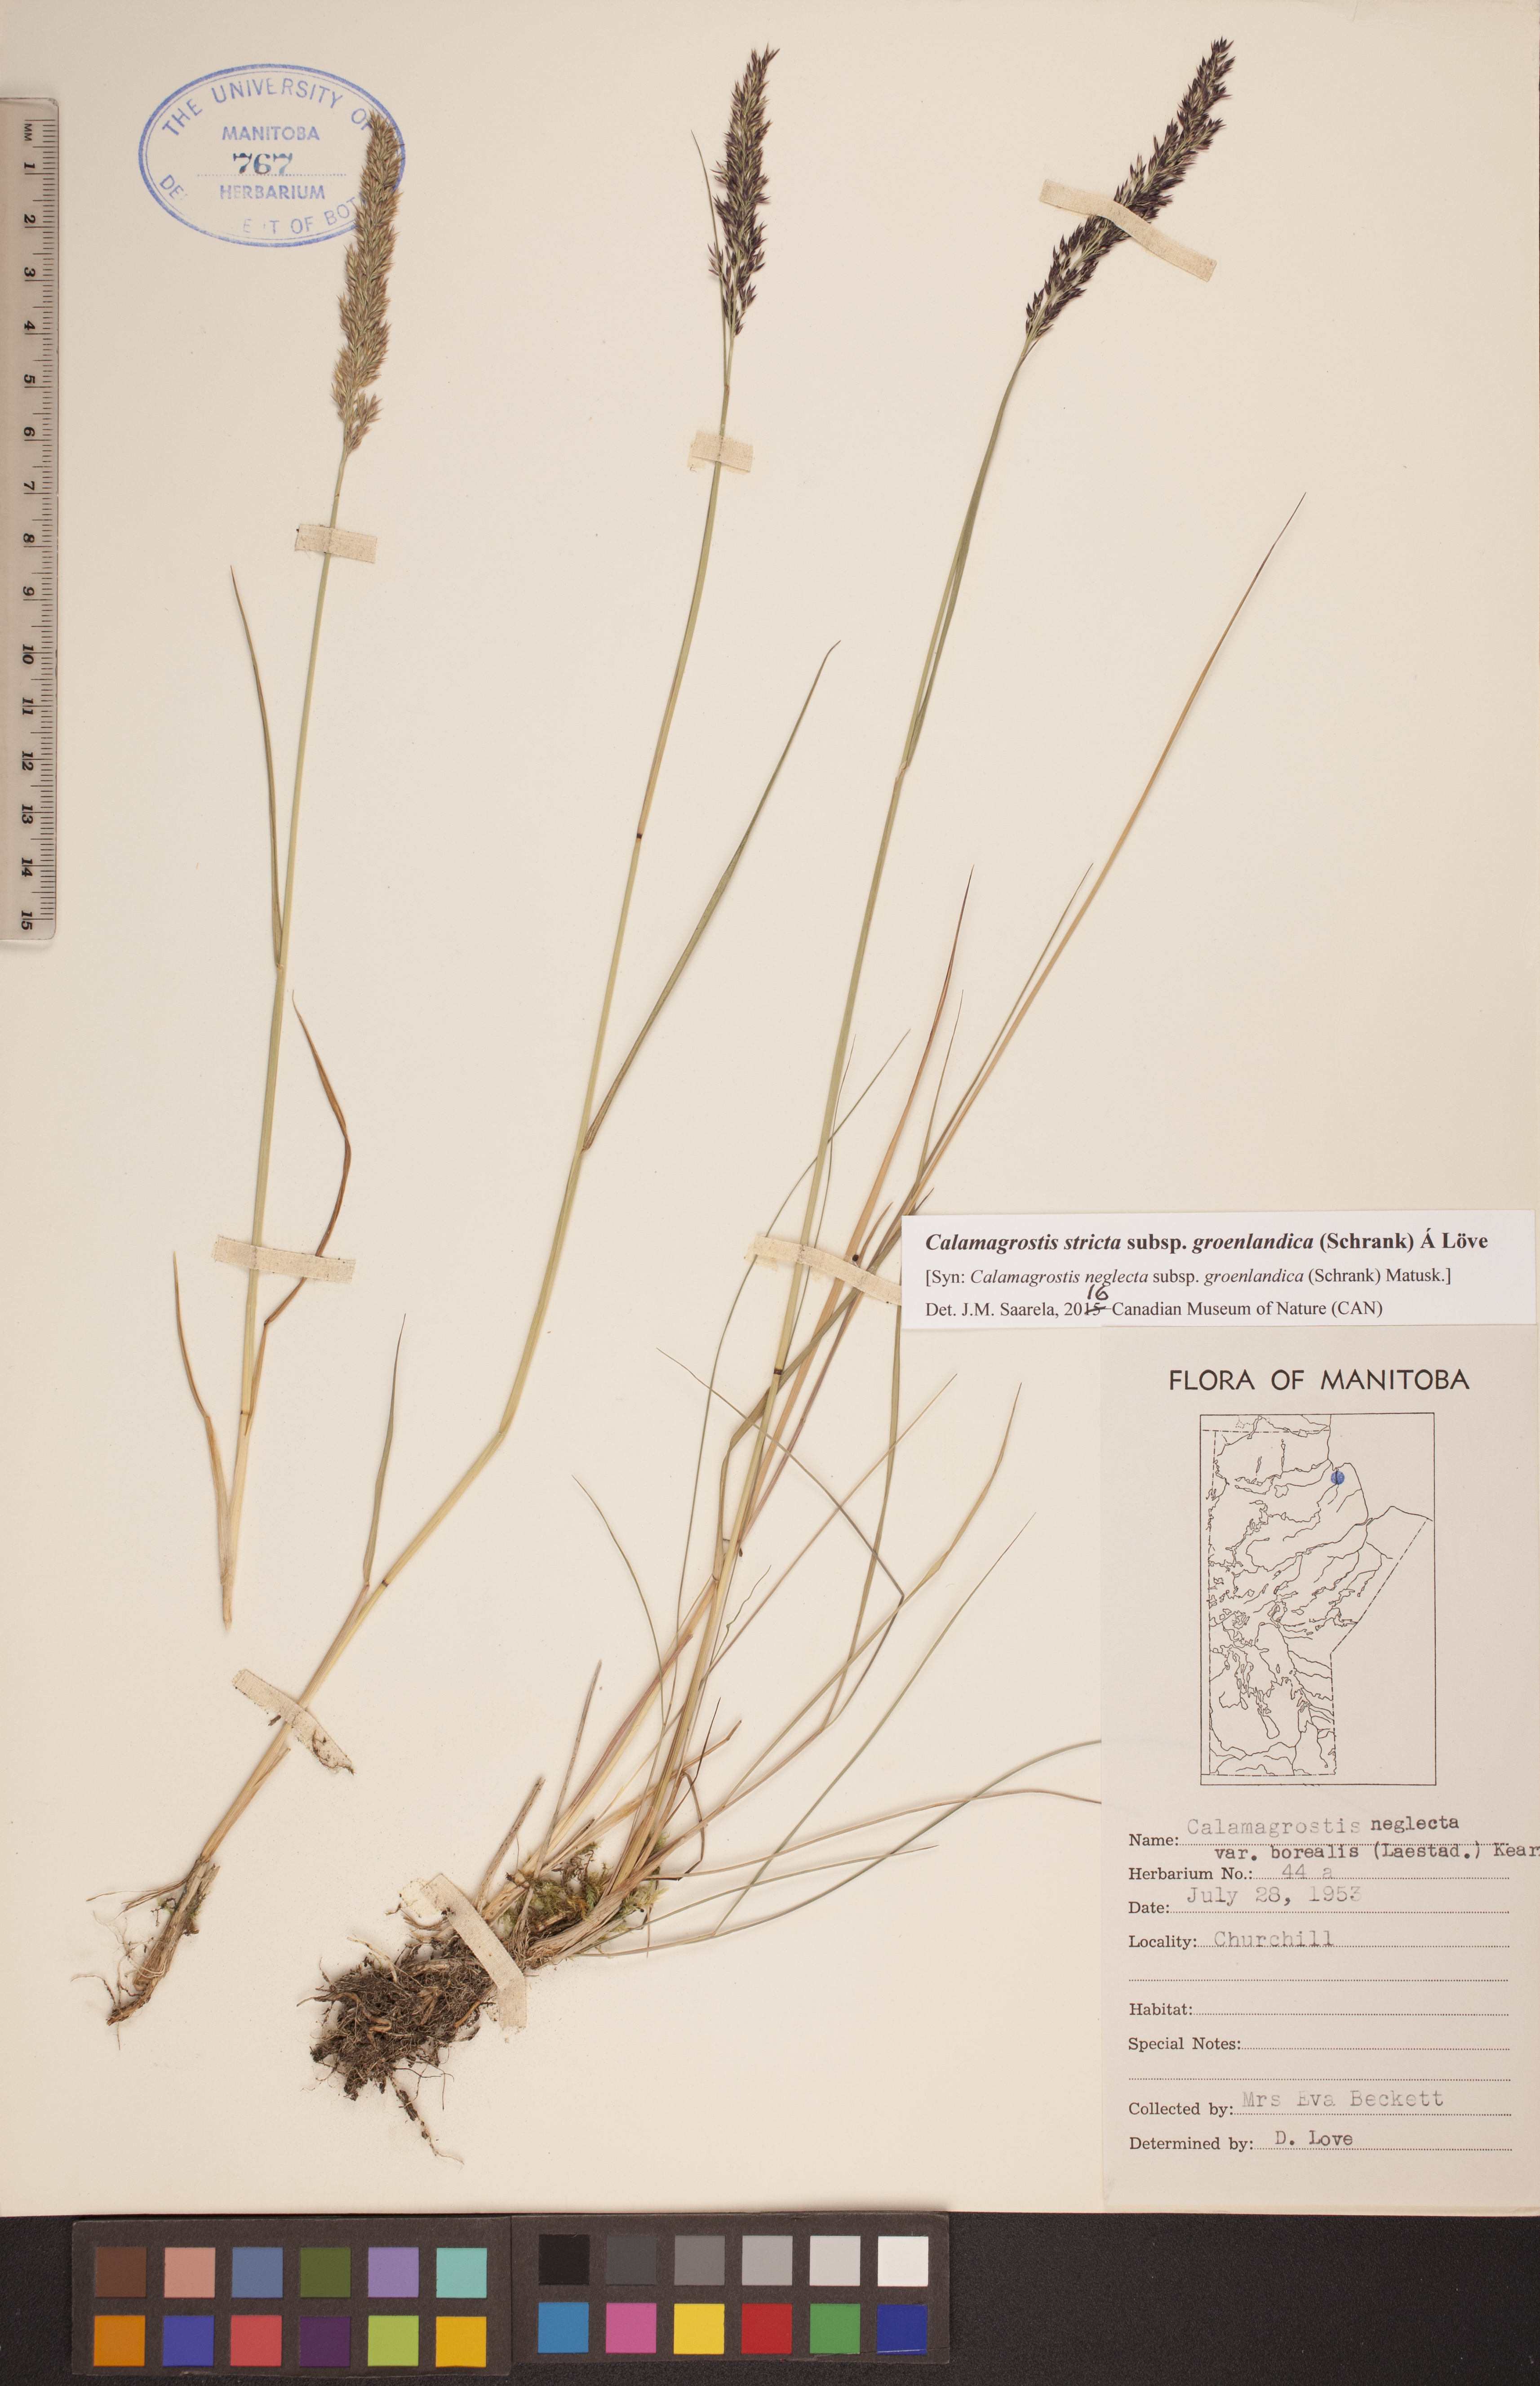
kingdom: Plantae
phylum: Tracheophyta
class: Liliopsida
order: Poales
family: Poaceae
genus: Calamagrostis
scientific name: Calamagrostis stricta
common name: Narrow small-reed
